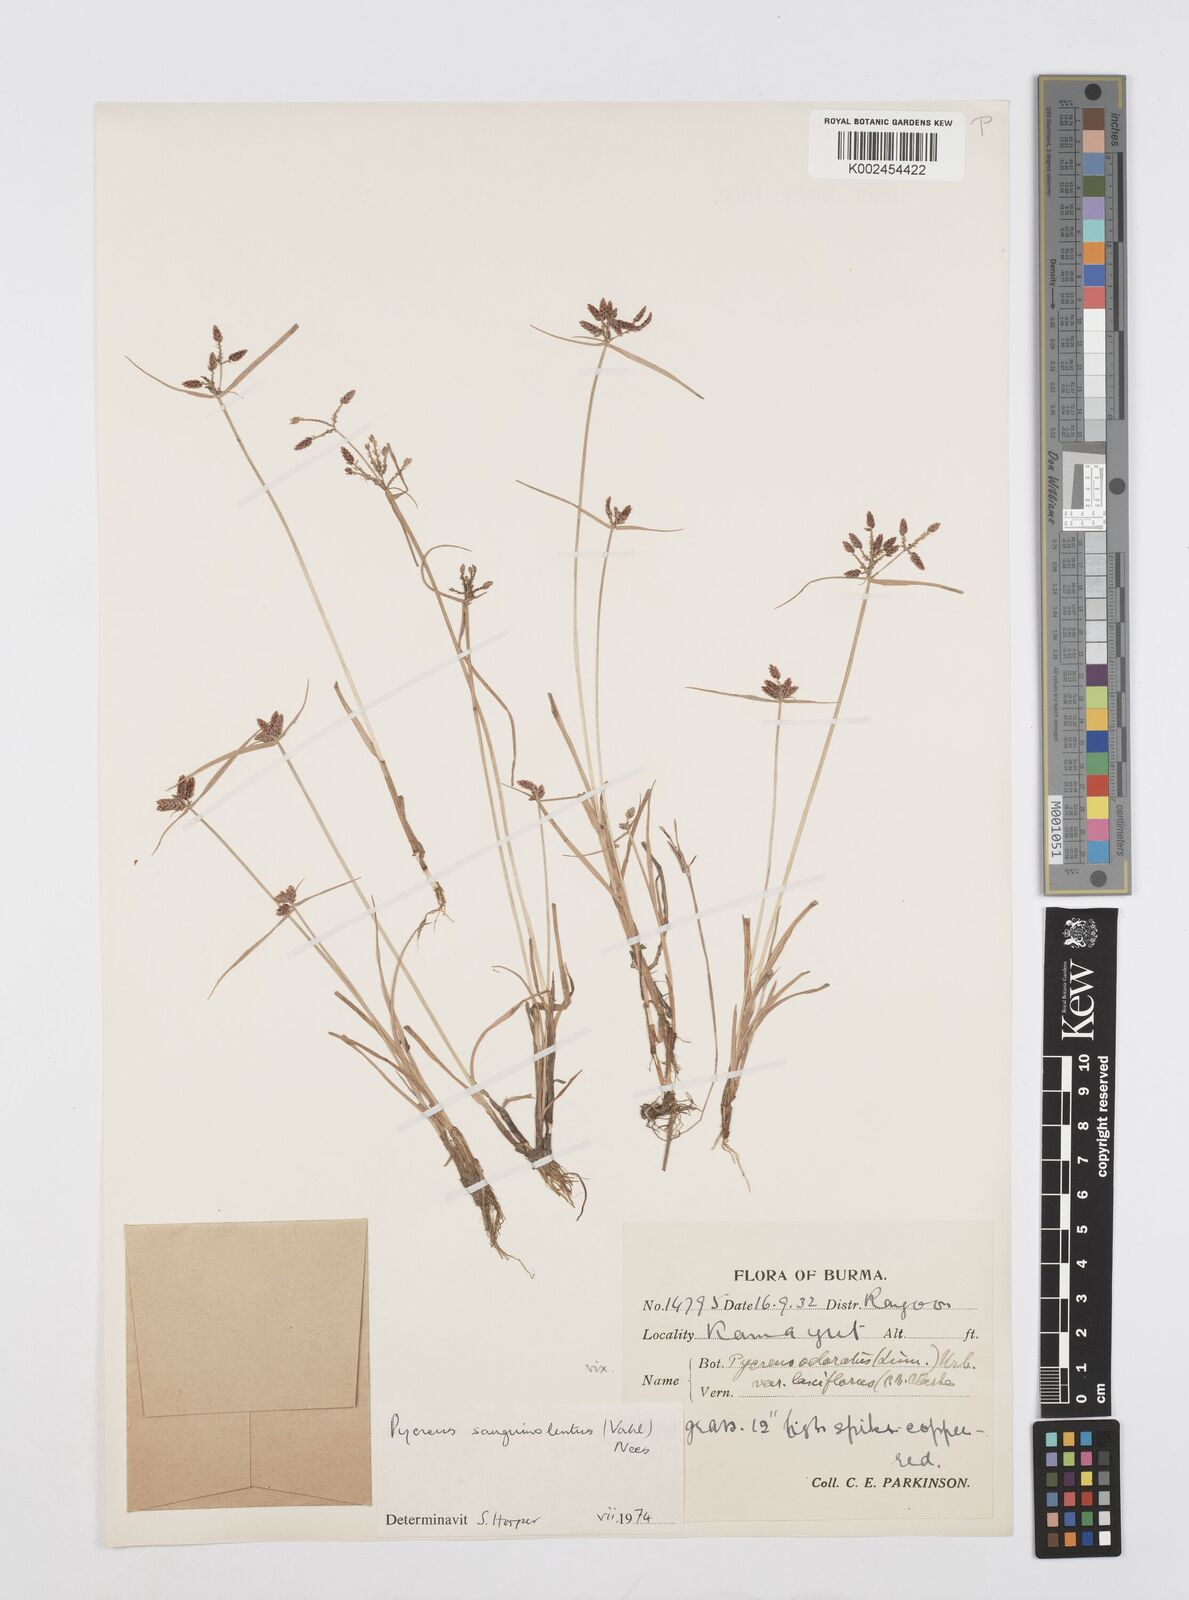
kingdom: Plantae
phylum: Tracheophyta
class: Liliopsida
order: Poales
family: Cyperaceae
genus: Cyperus
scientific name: Cyperus sanguinolentus
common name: Purpleglume flatsedge
